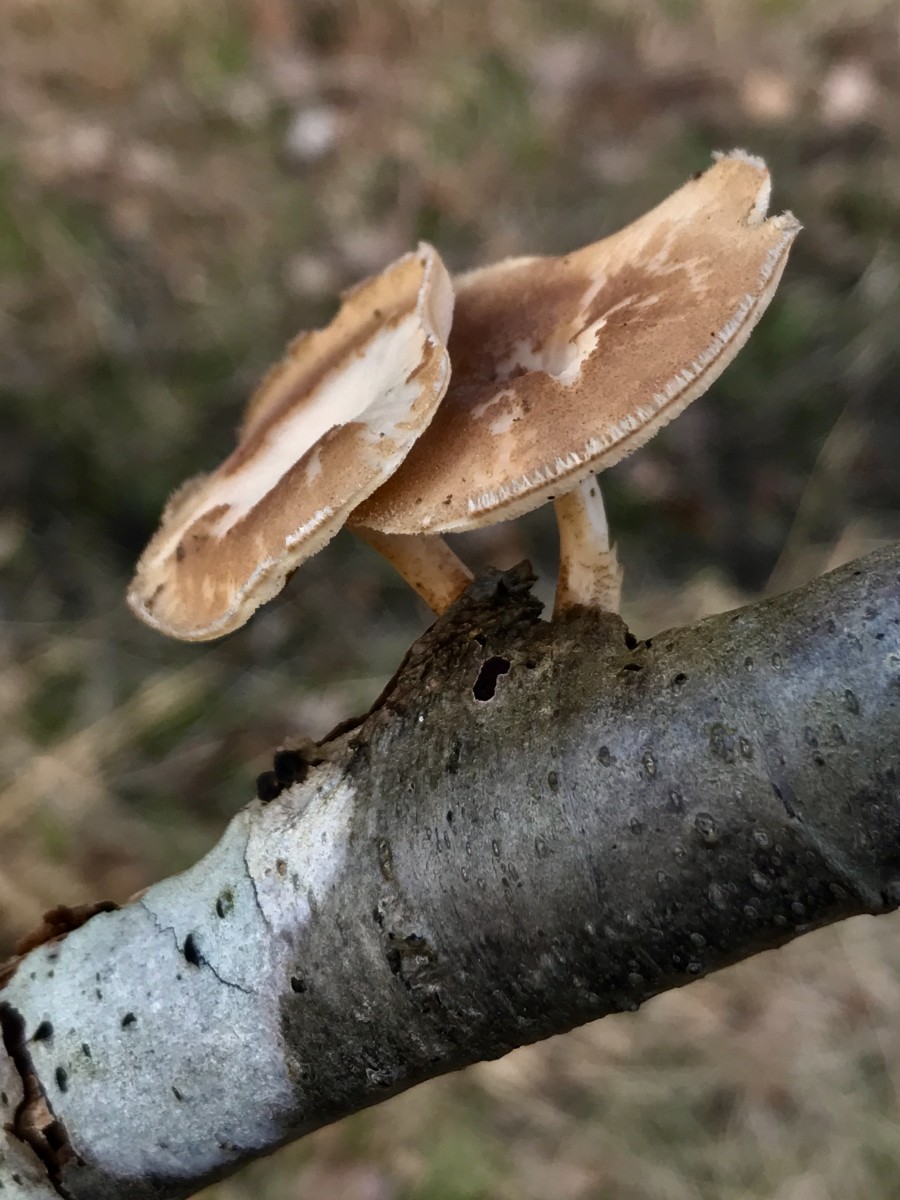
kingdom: Fungi
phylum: Basidiomycota
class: Agaricomycetes
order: Polyporales
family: Polyporaceae
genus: Lentinus
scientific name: Lentinus brumalis
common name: vinter-stilkporesvamp
